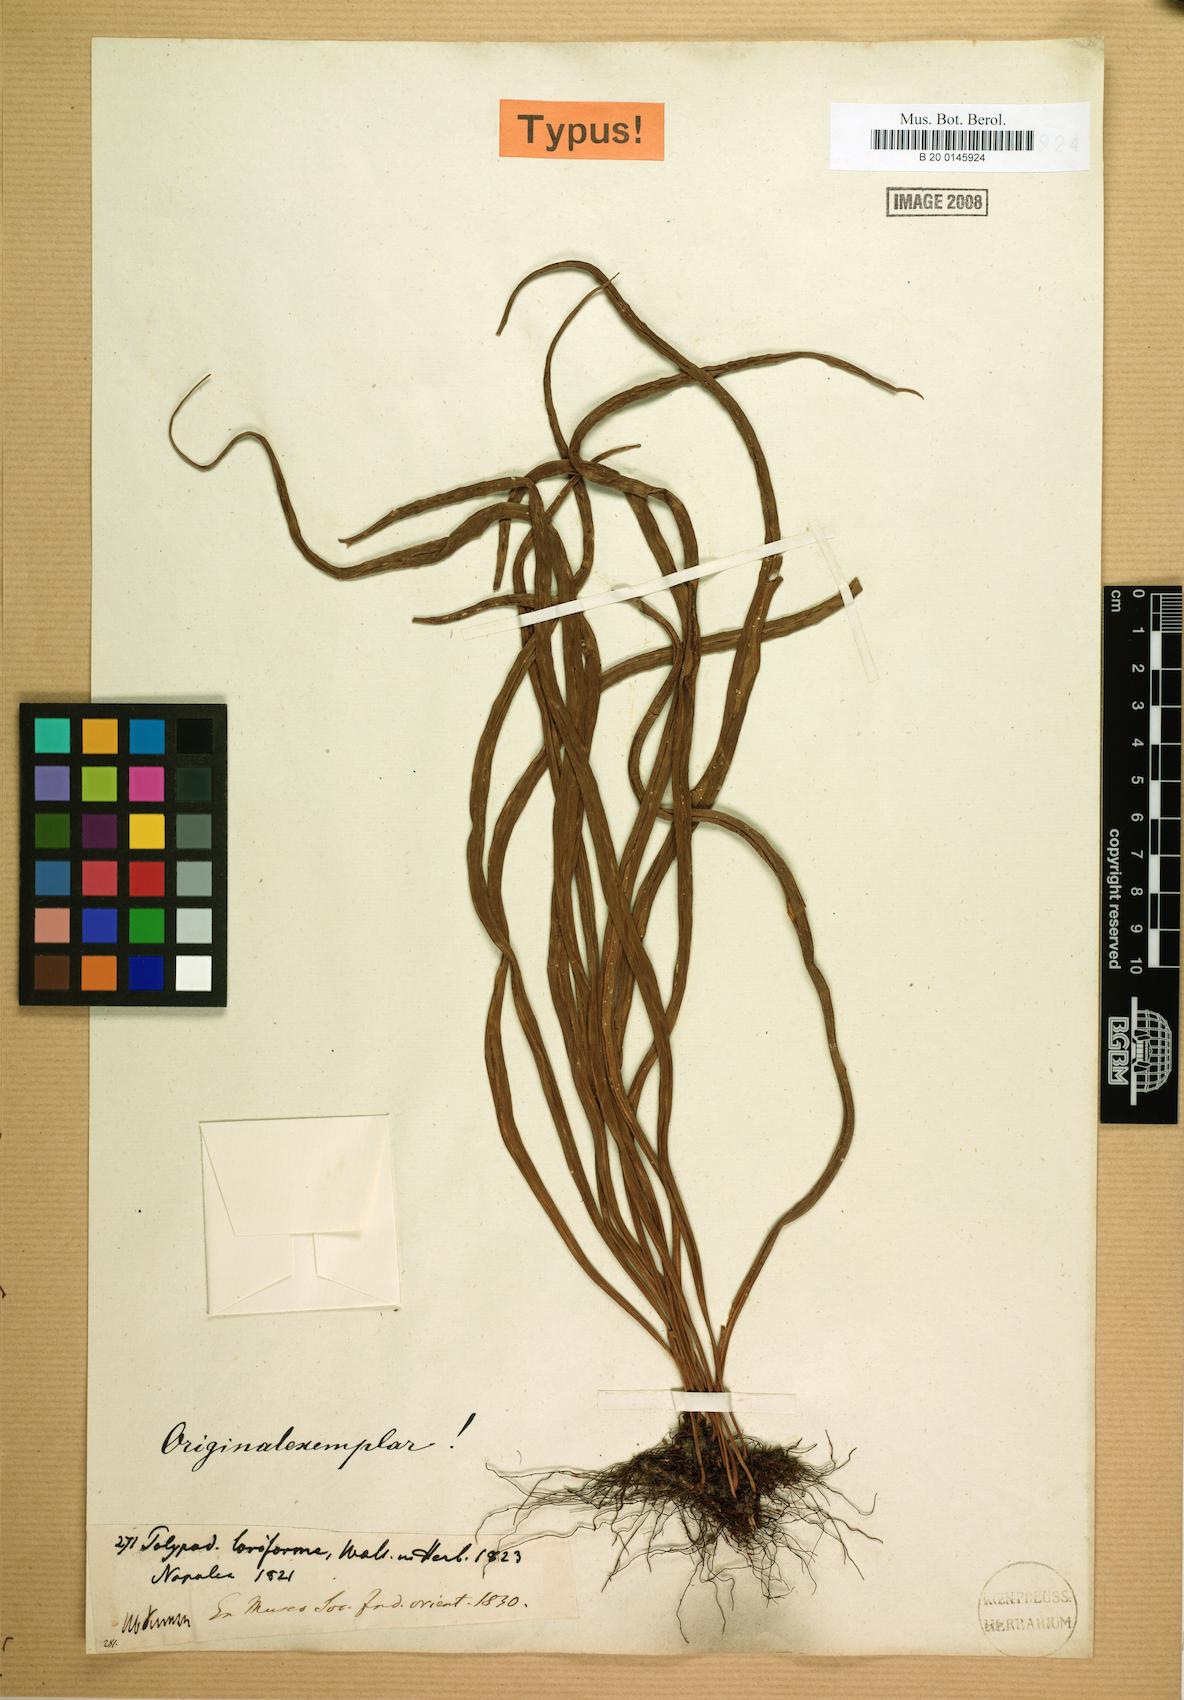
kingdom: Plantae
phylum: Tracheophyta
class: Polypodiopsida
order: Polypodiales
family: Polypodiaceae
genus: Lepisorus
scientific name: Lepisorus loriformis
